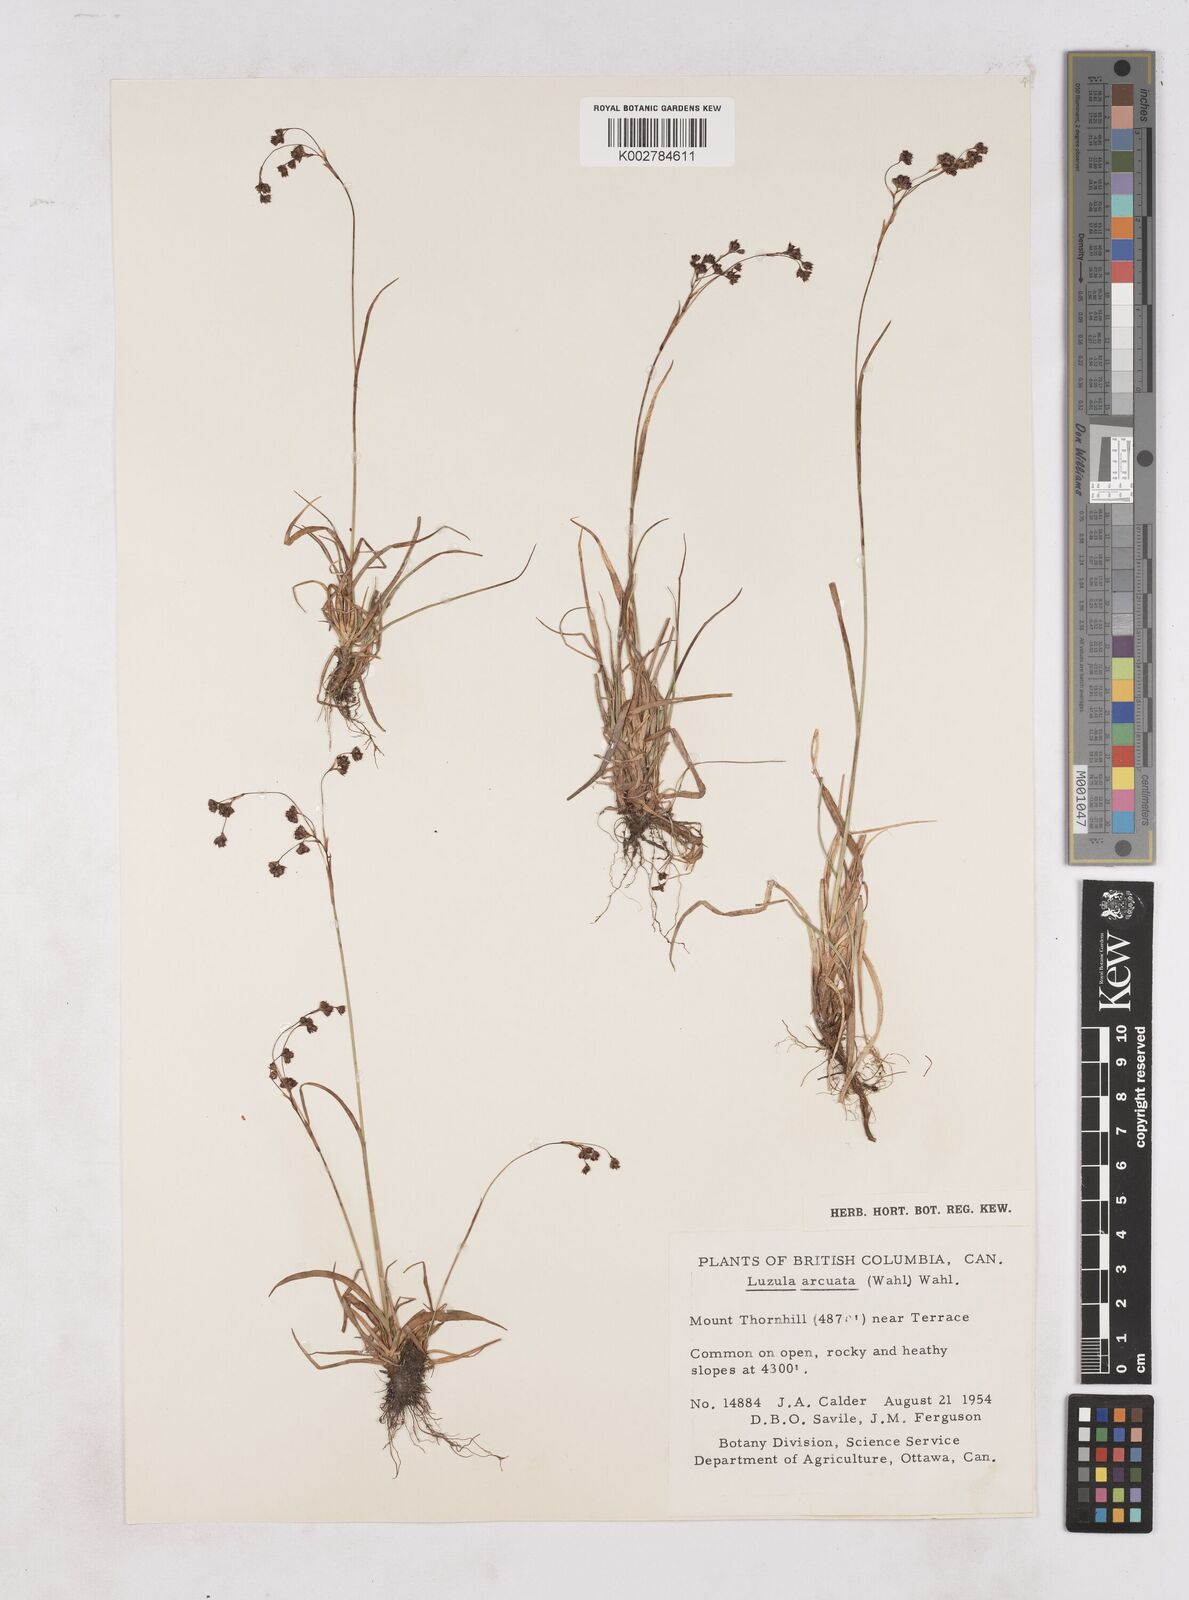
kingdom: Plantae
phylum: Tracheophyta
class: Liliopsida
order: Poales
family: Juncaceae
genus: Luzula
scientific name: Luzula arcuata
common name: Curved wood-rush
